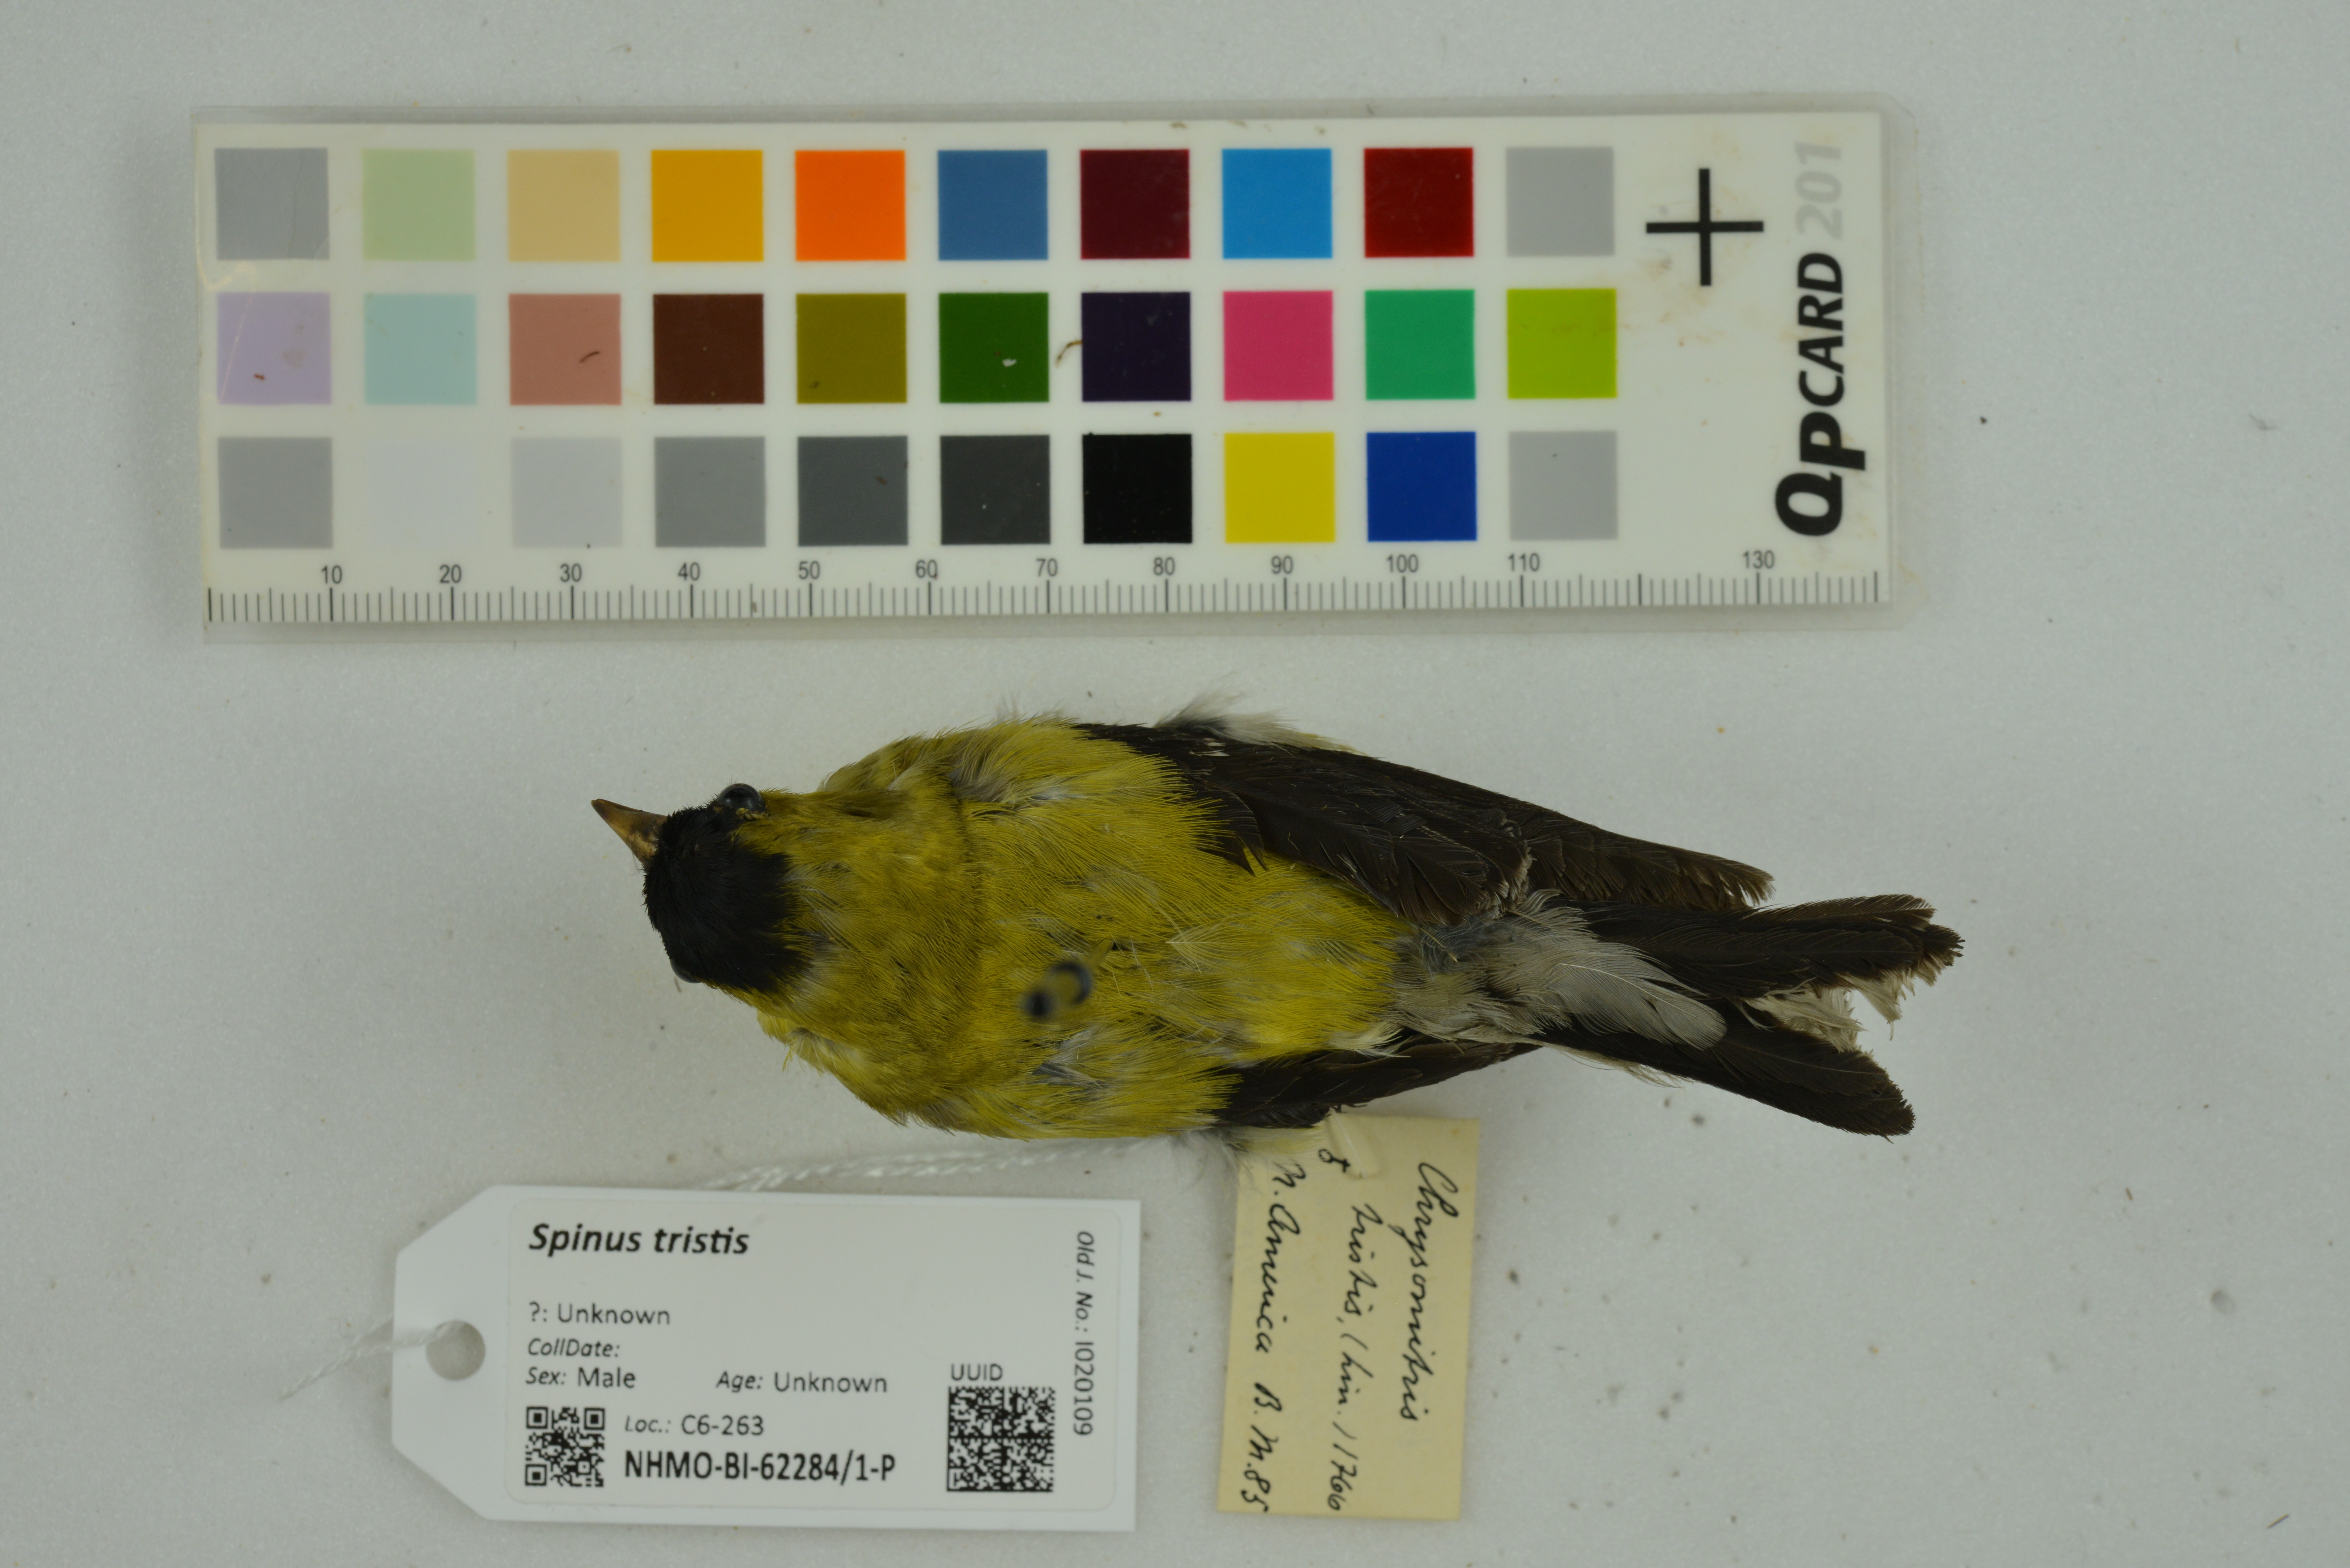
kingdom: Animalia
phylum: Chordata
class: Aves
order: Passeriformes
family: Fringillidae
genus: Spinus
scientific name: Spinus tristis
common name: American goldfinch
